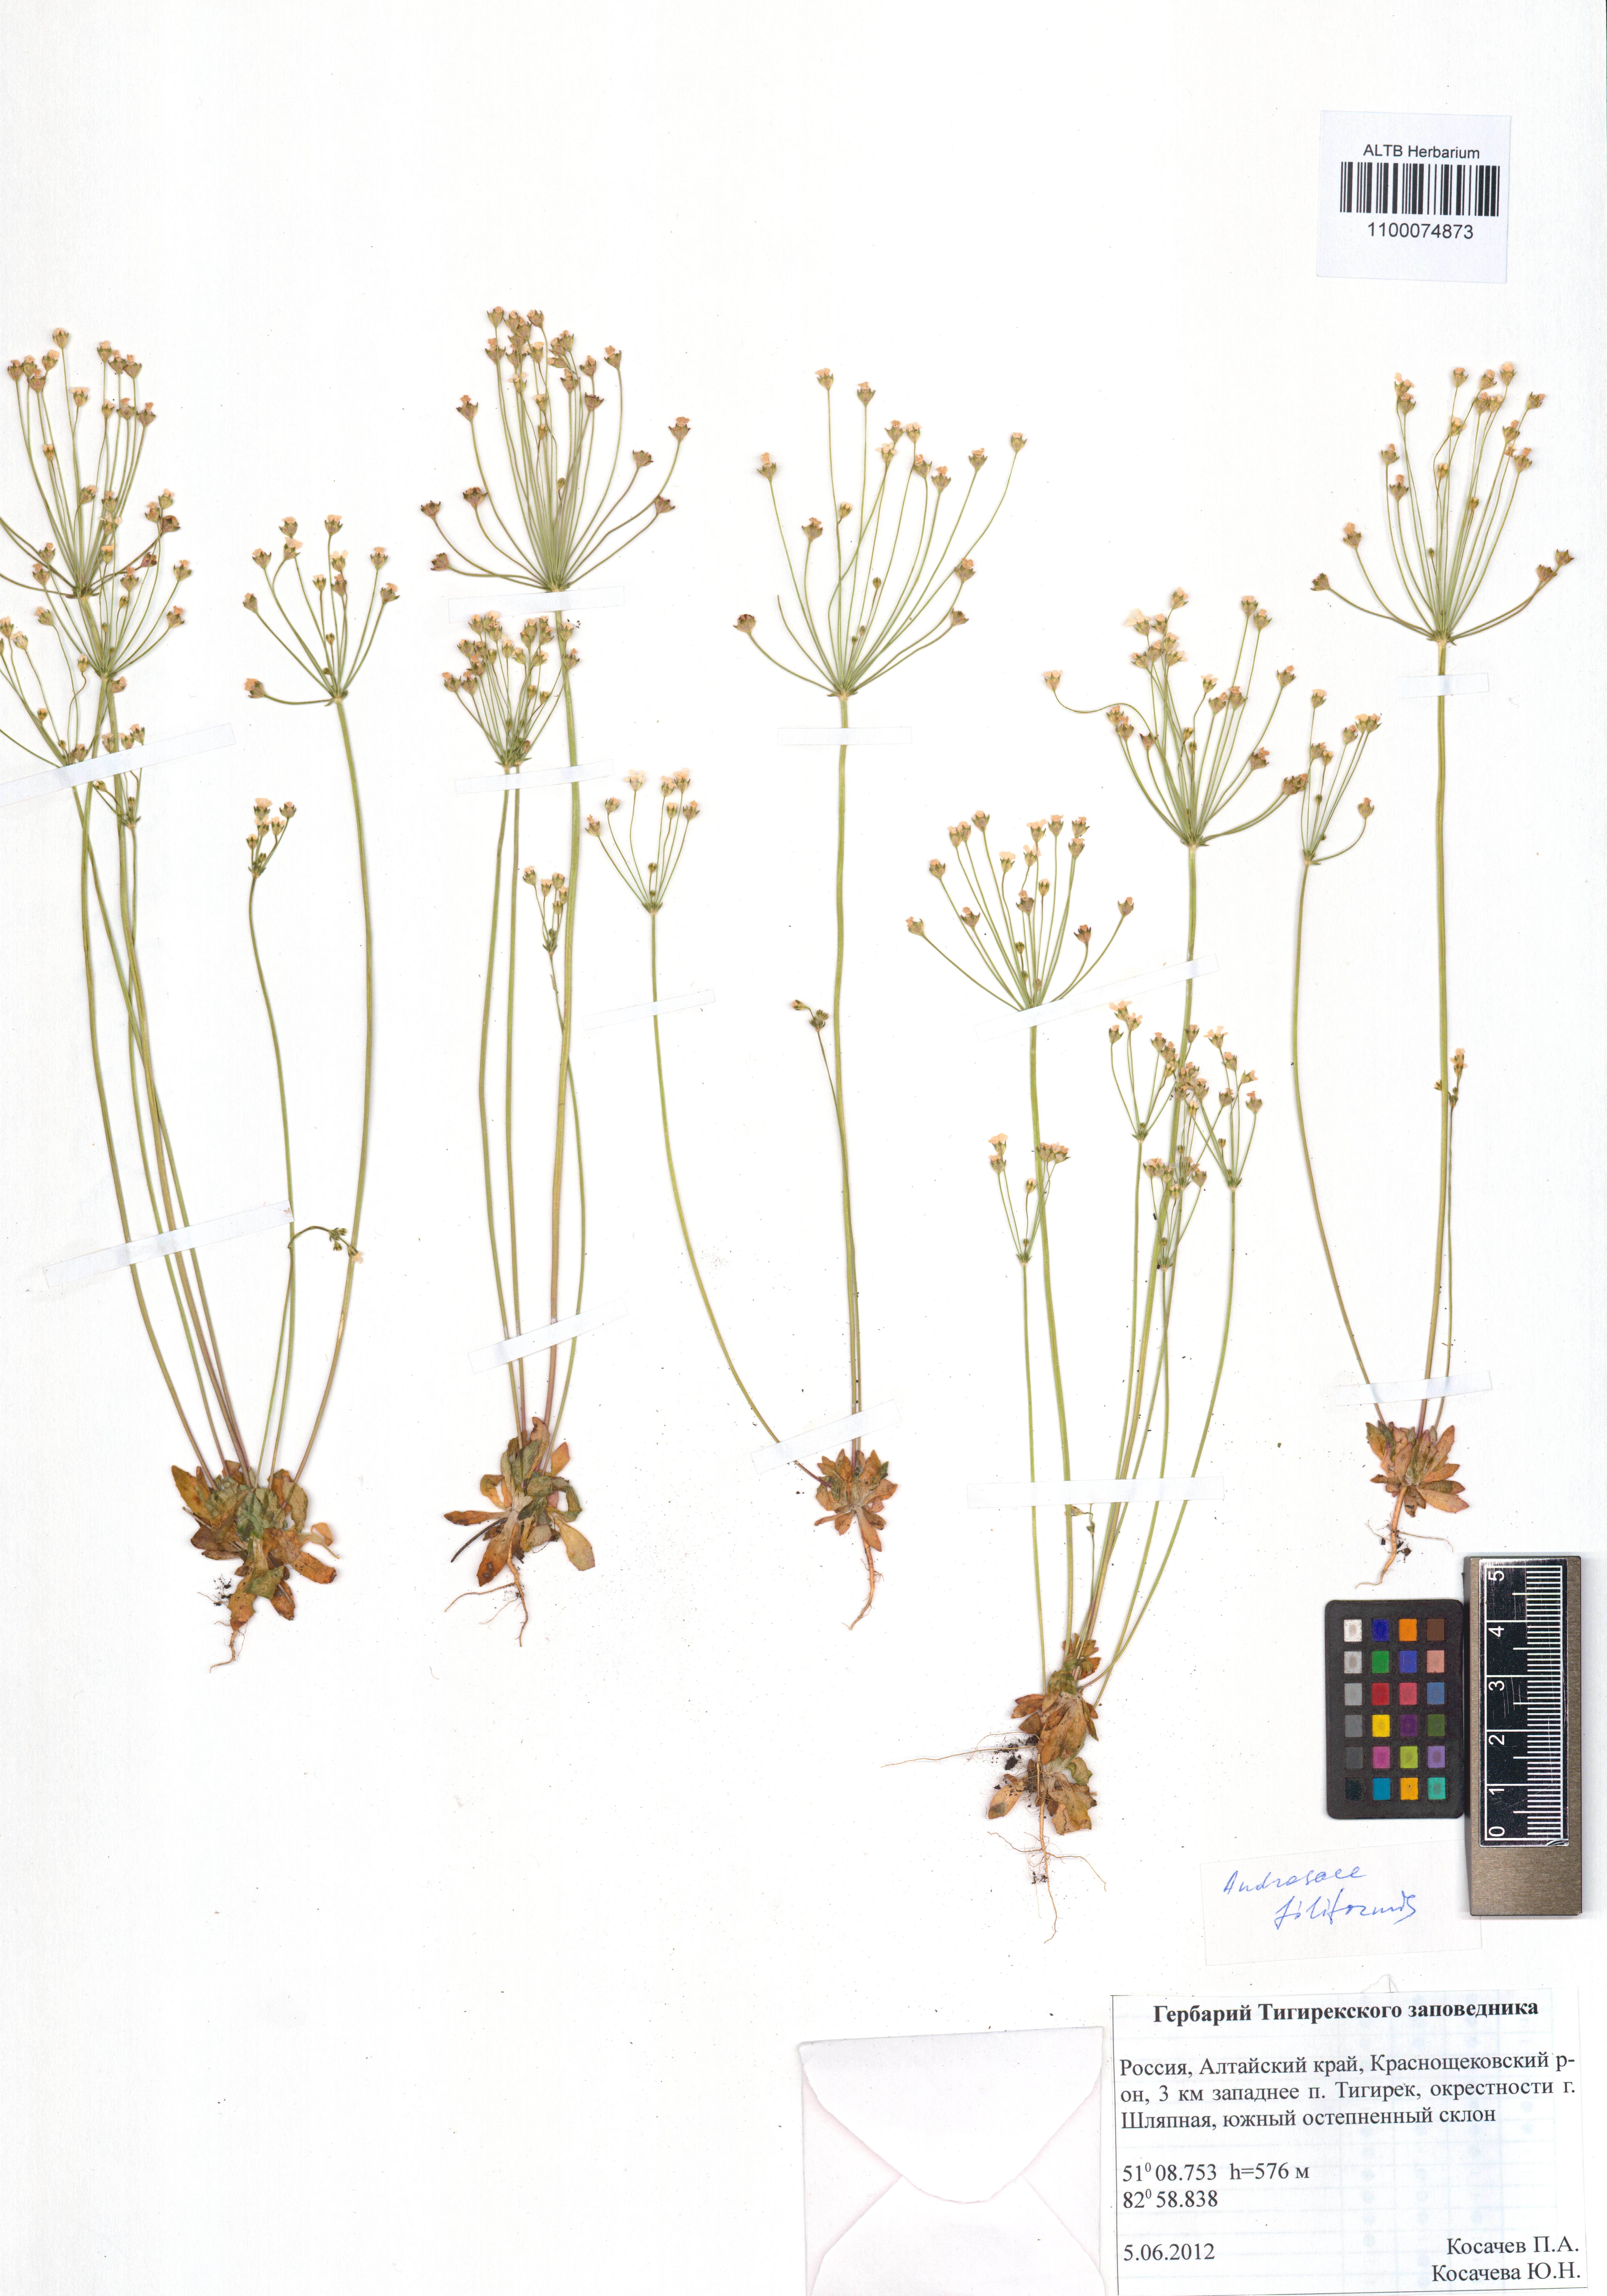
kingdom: Plantae
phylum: Tracheophyta
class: Magnoliopsida
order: Ericales
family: Primulaceae
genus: Androsace
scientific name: Androsace filiformis
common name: Filiform rock jasmine
